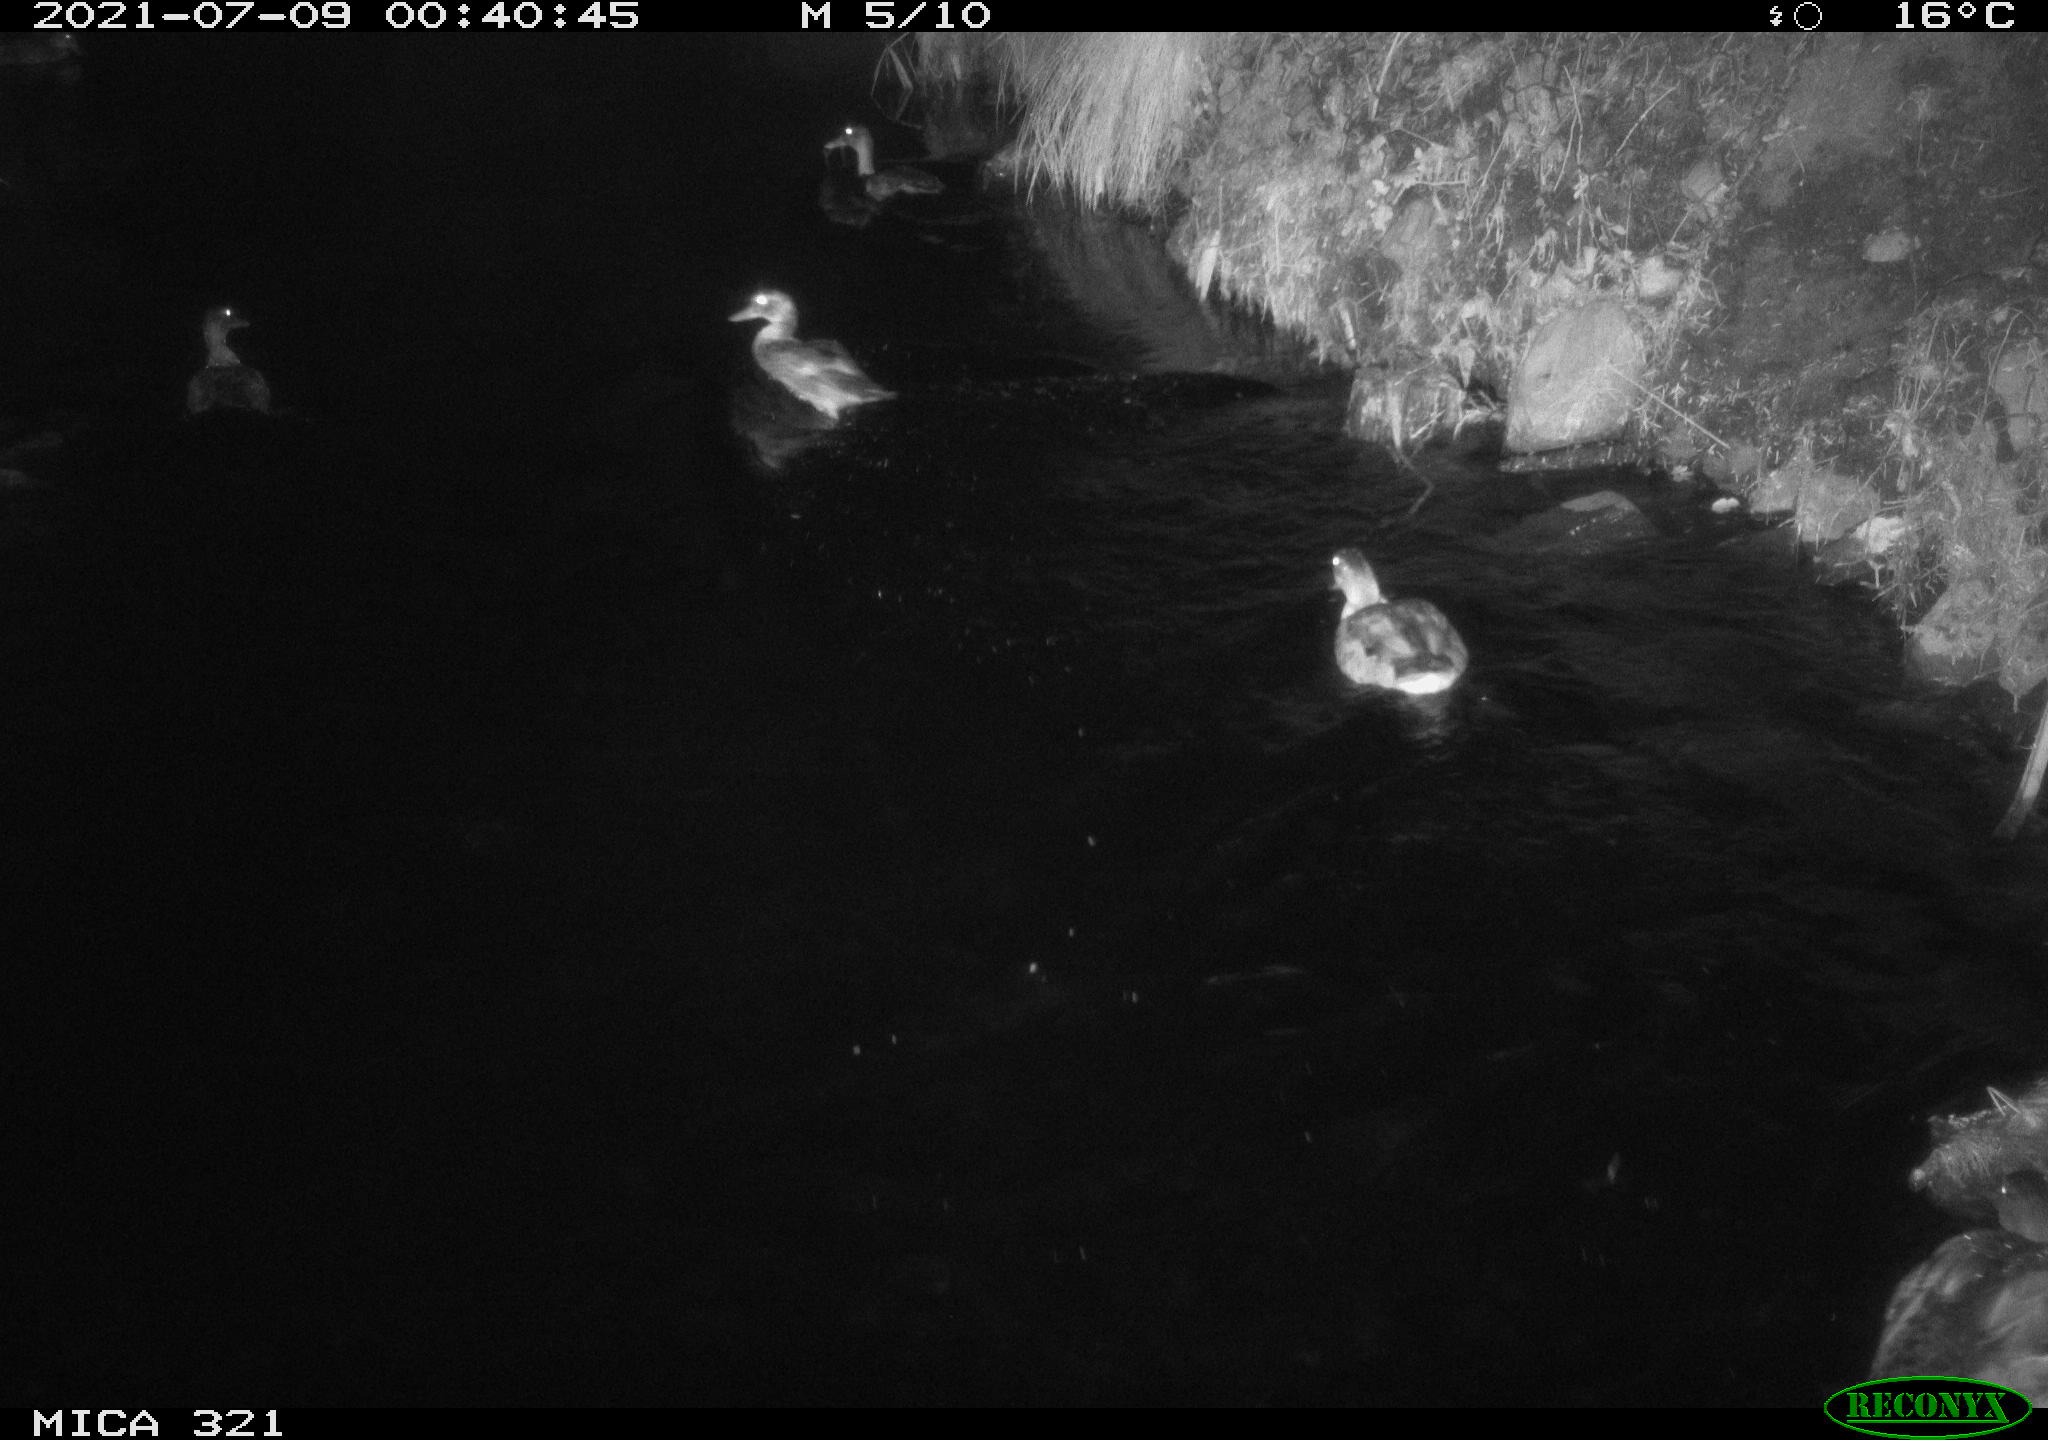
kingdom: Animalia
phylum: Chordata
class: Aves
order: Anseriformes
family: Anatidae
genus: Anas
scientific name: Anas platyrhynchos
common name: Mallard
